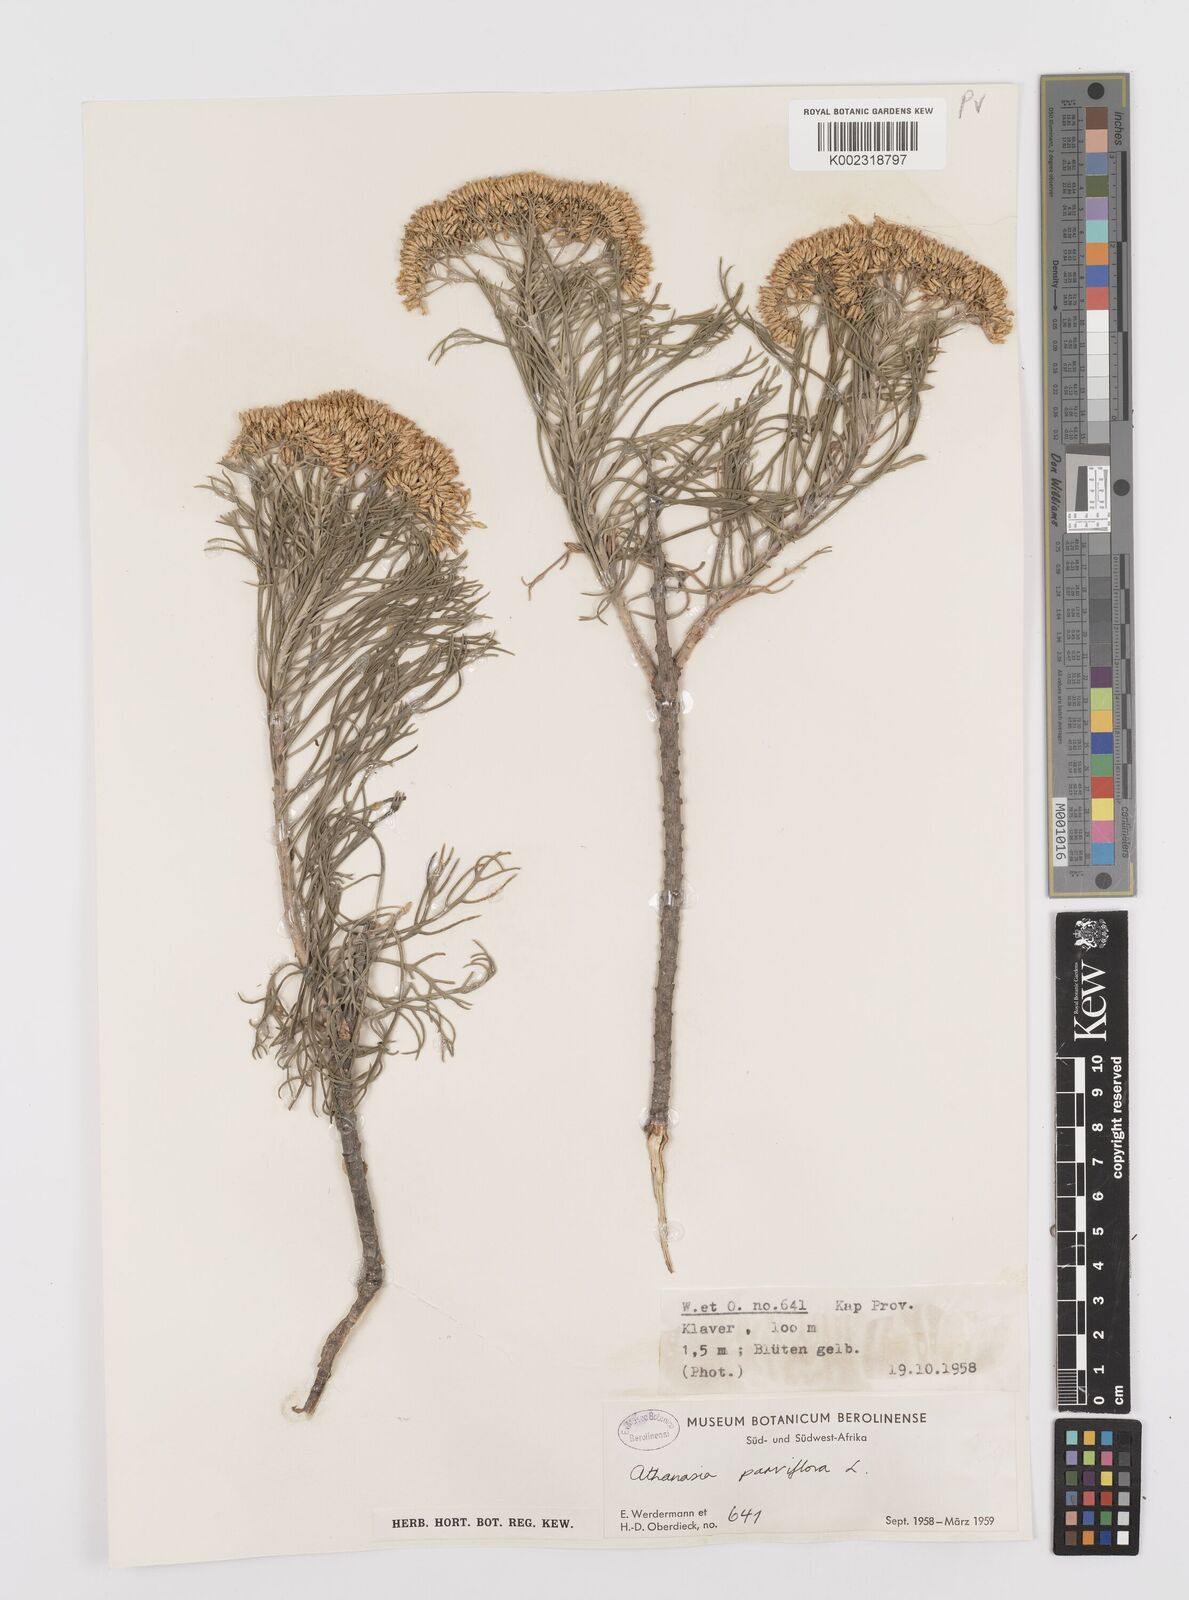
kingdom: Plantae
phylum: Tracheophyta
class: Magnoliopsida
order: Asterales
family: Asteraceae
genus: Hymenolepis
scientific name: Hymenolepis crithmifolia
